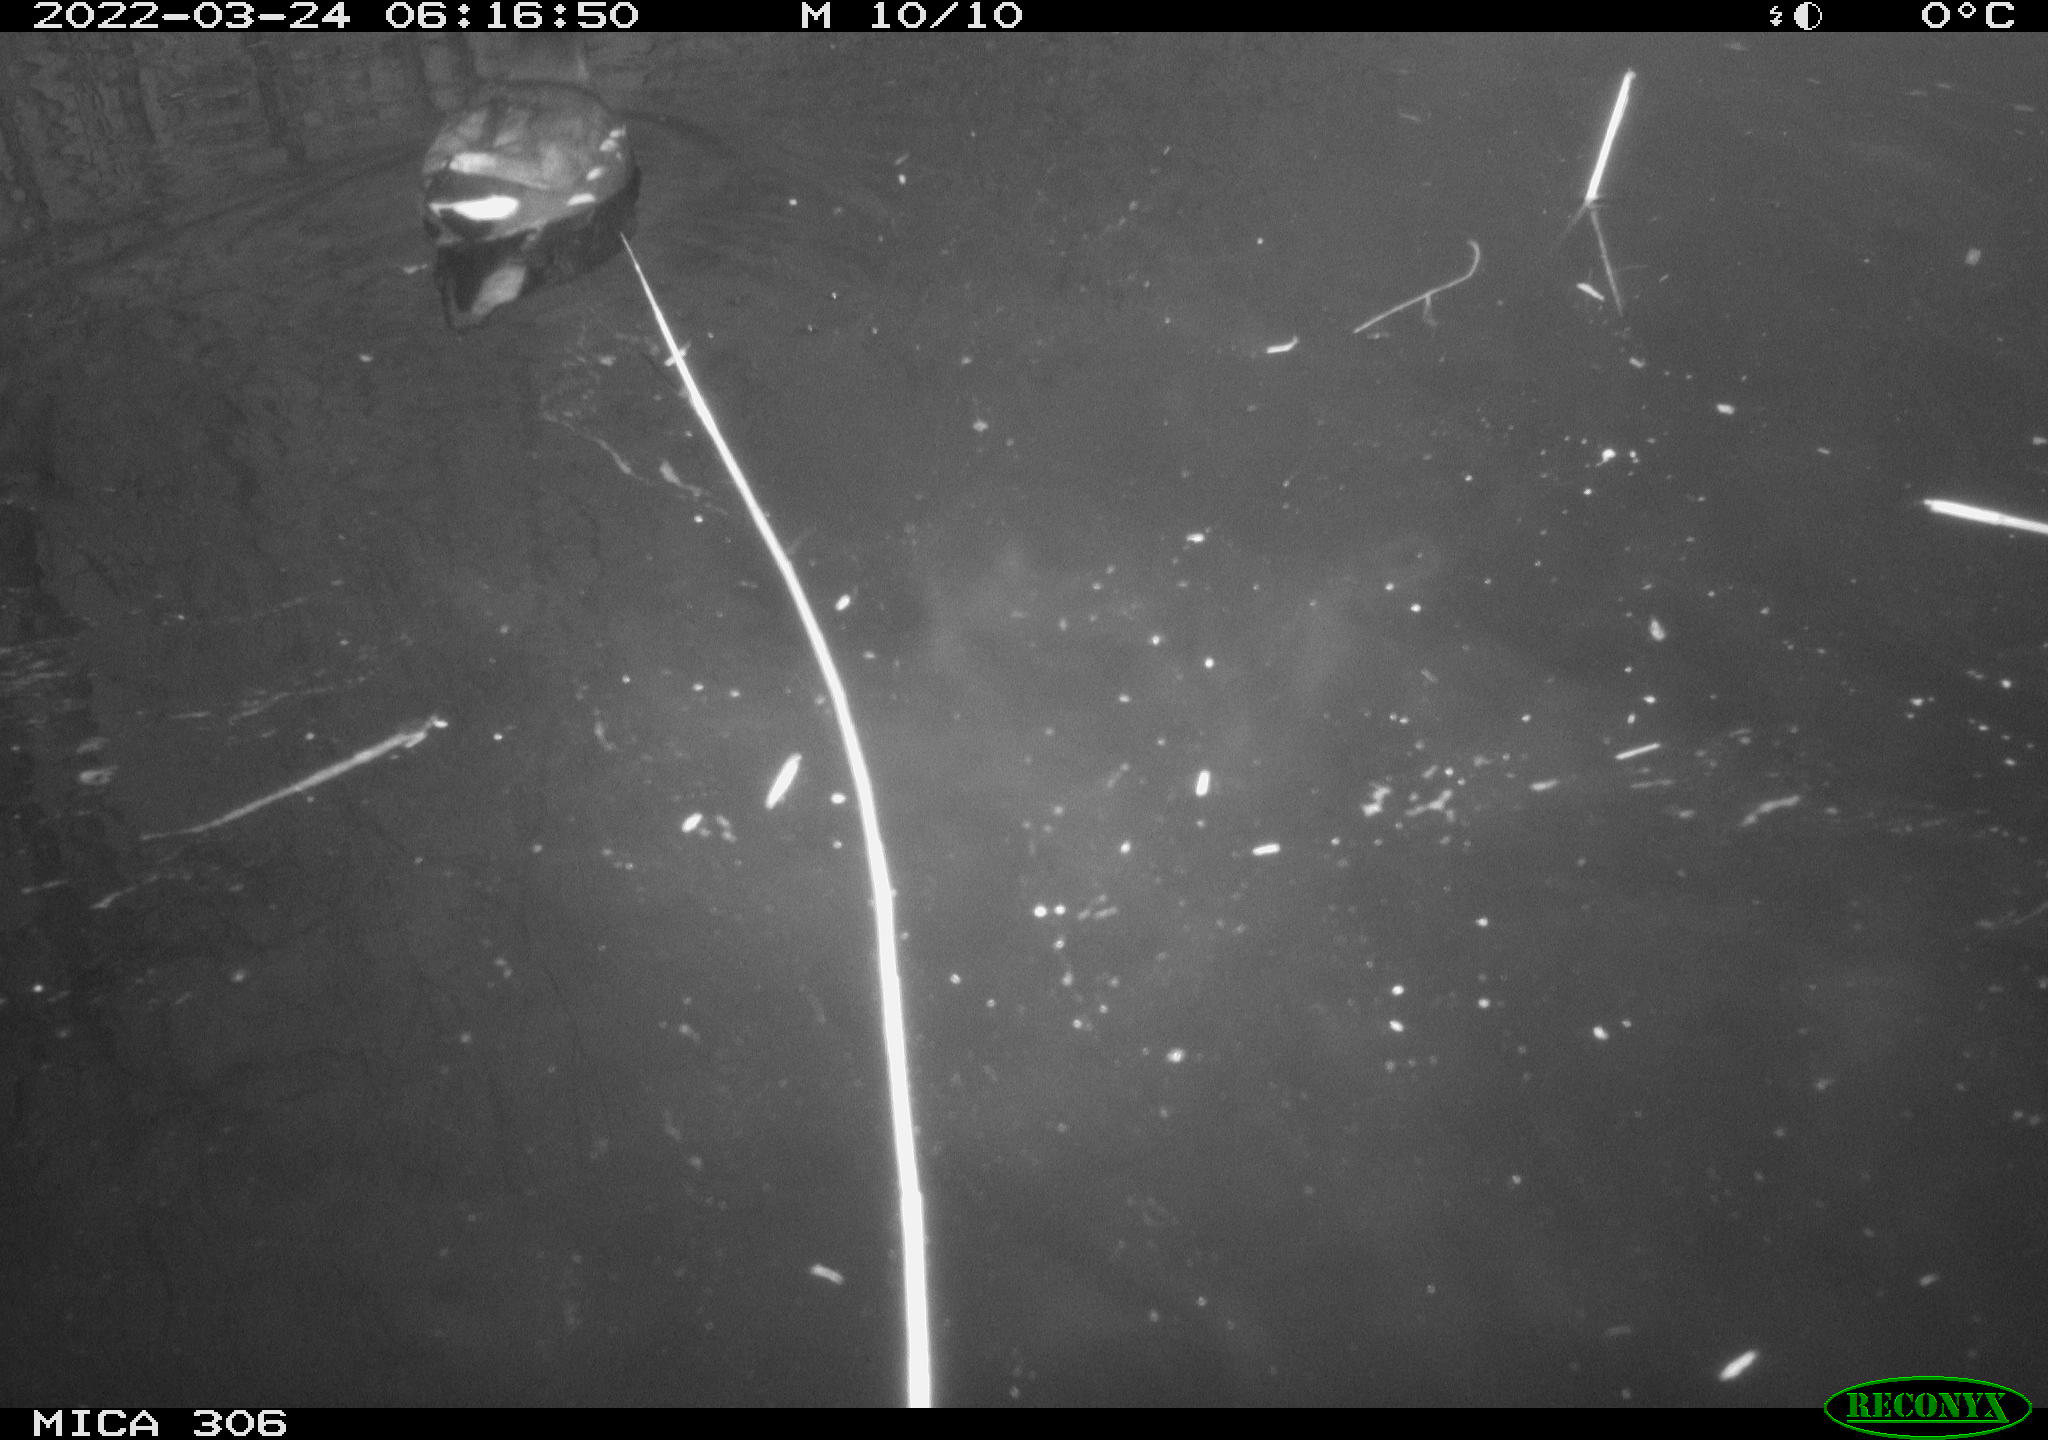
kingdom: Animalia
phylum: Chordata
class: Aves
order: Gruiformes
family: Rallidae
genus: Gallinula
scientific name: Gallinula chloropus
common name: Common moorhen
